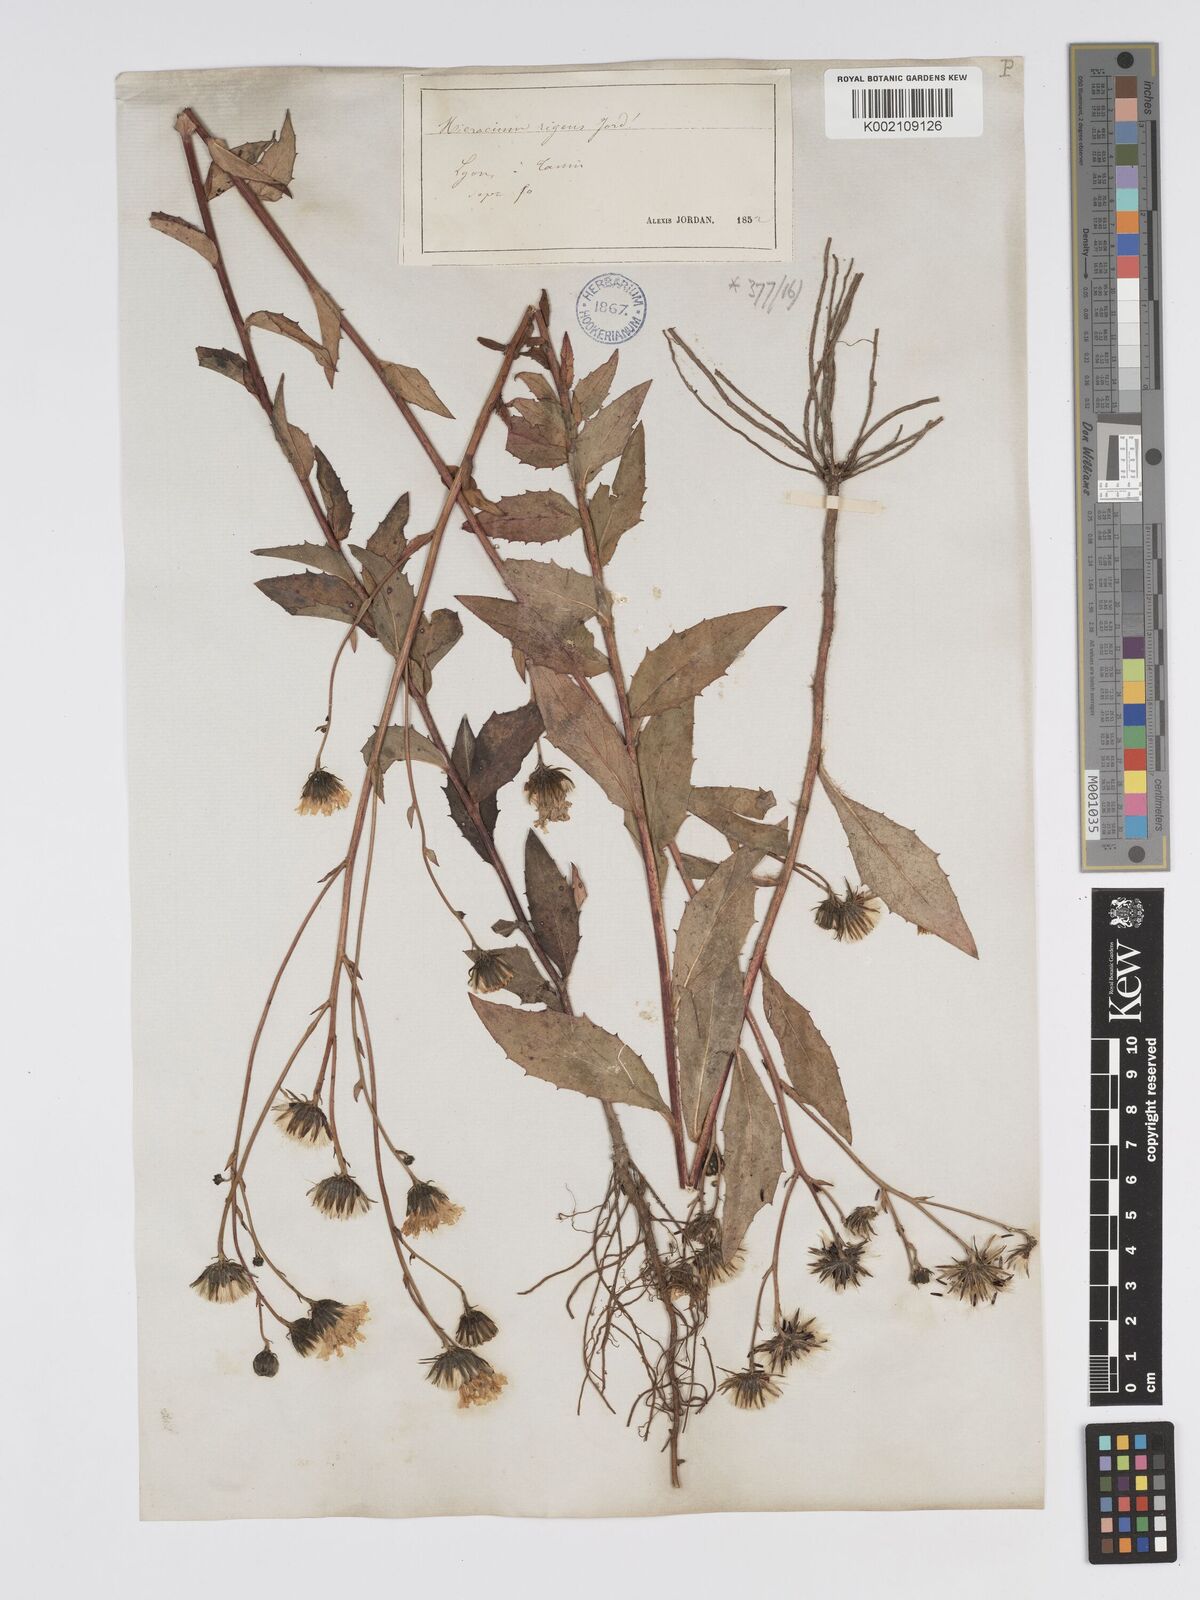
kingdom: Plantae
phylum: Tracheophyta
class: Magnoliopsida
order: Asterales
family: Asteraceae
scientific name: Asteraceae
